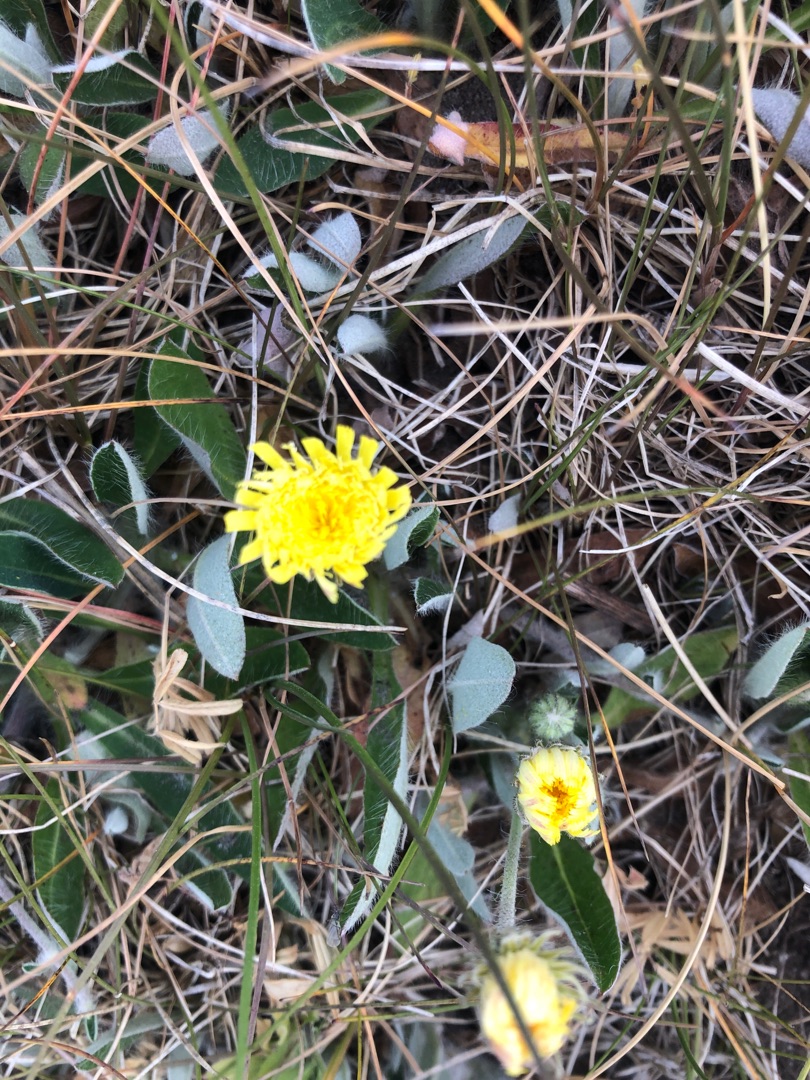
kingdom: Plantae
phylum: Tracheophyta
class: Magnoliopsida
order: Asterales
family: Asteraceae
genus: Pilosella
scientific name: Pilosella officinarum
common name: Håret høgeurt
